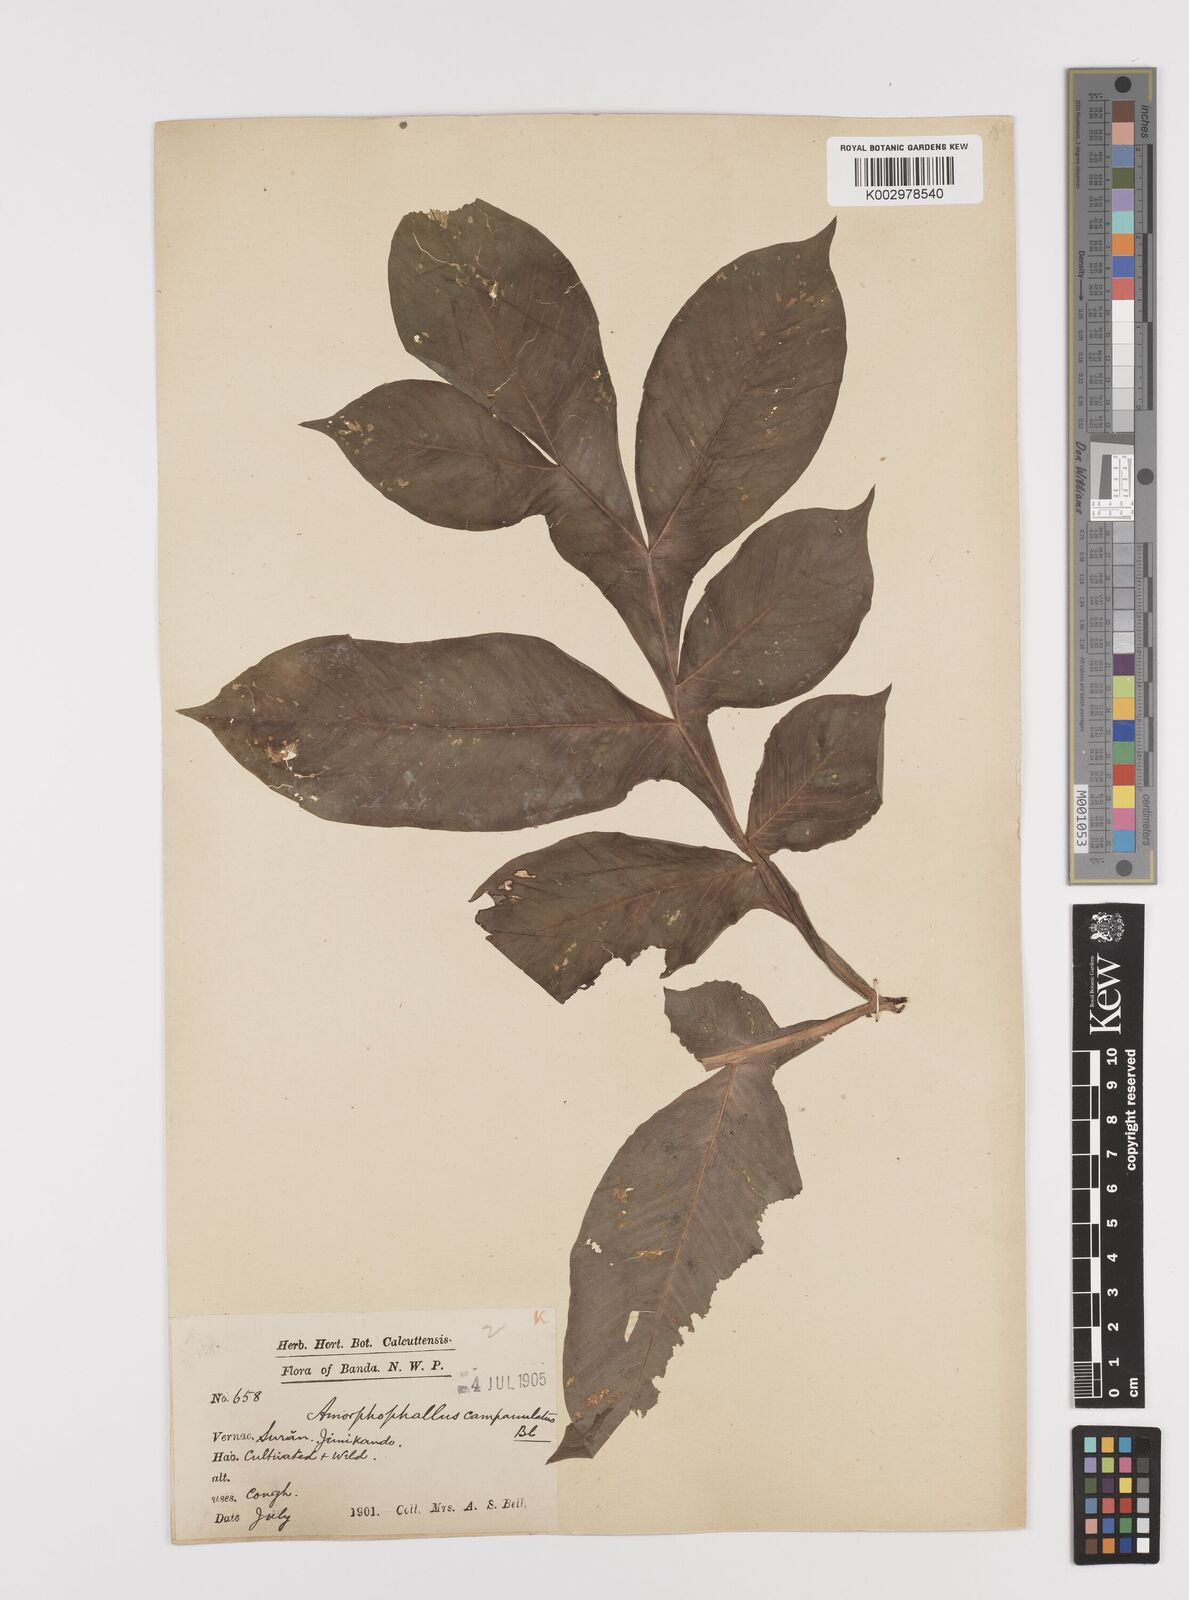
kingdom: Plantae
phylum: Tracheophyta
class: Liliopsida
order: Alismatales
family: Araceae
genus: Amorphophallus
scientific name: Amorphophallus paeoniifolius
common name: Telinga-potato
